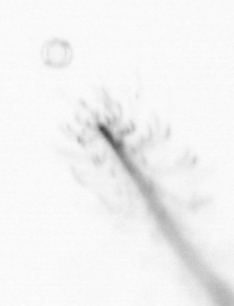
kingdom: Chromista
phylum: Ochrophyta
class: Bacillariophyceae
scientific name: Bacillariophyceae
